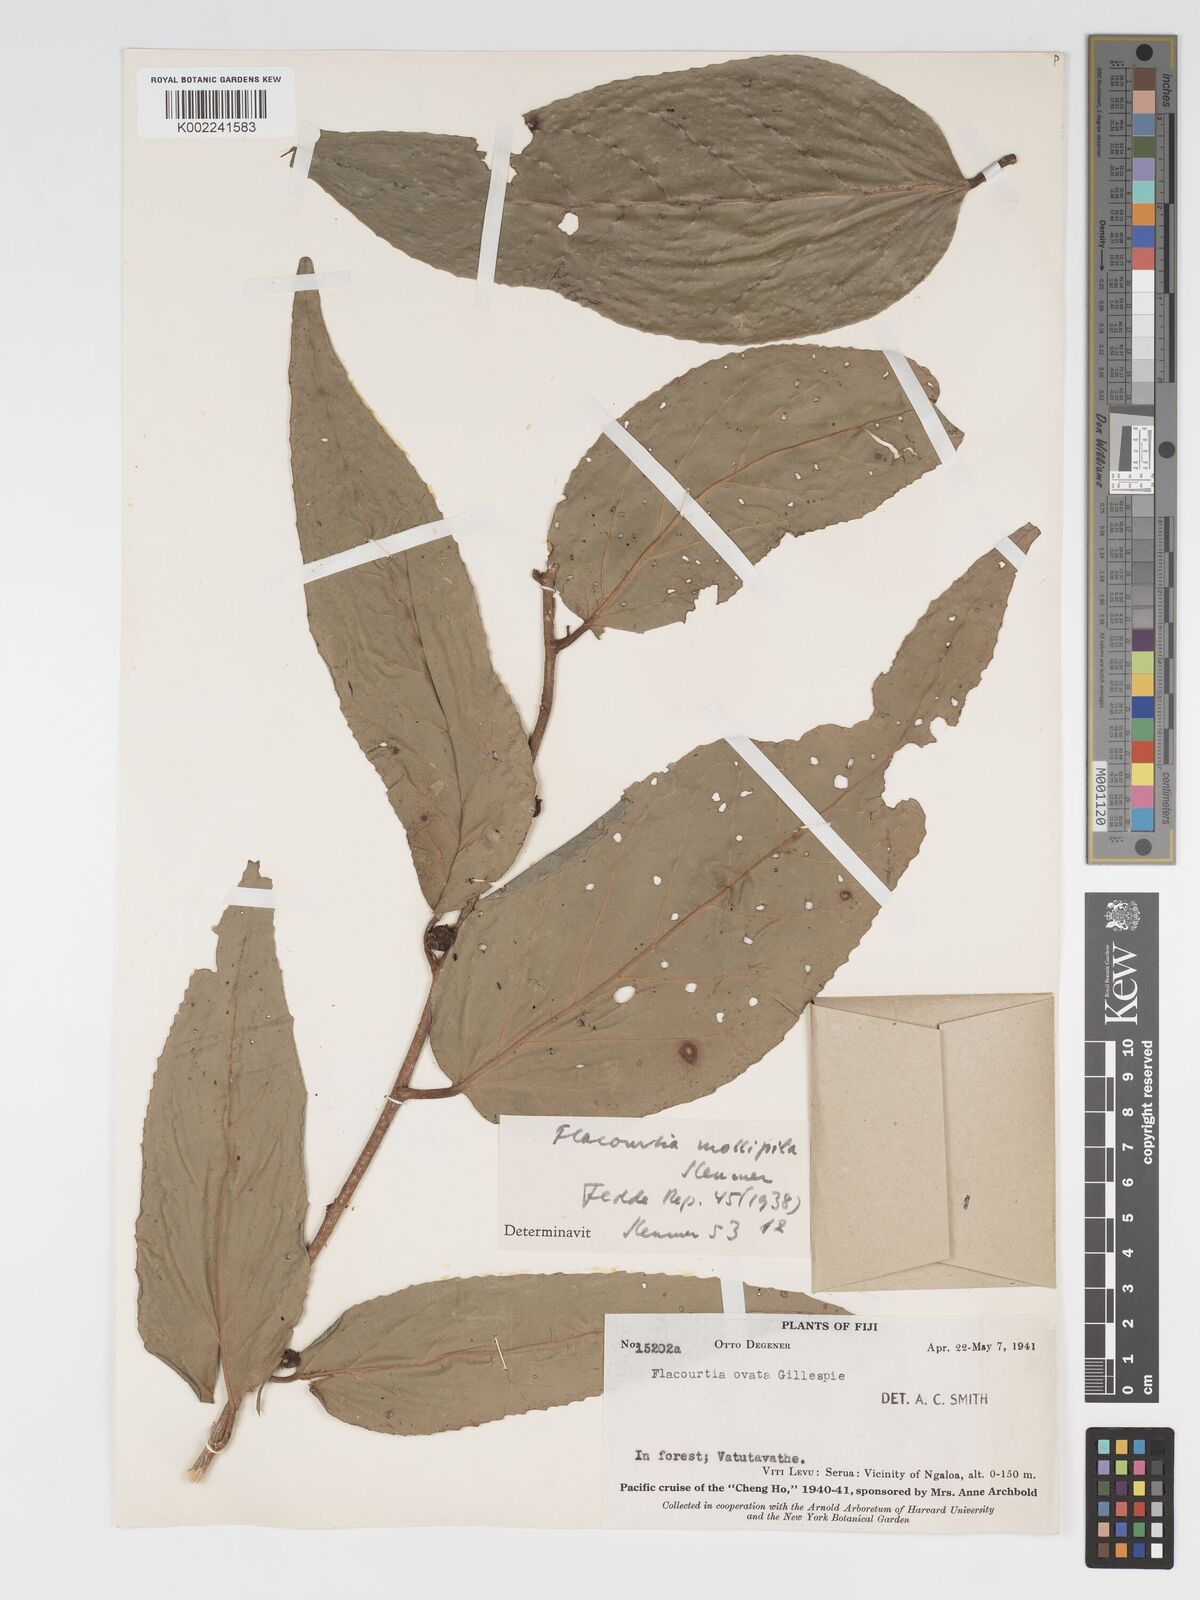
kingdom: Plantae
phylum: Tracheophyta
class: Magnoliopsida
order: Malpighiales
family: Salicaceae
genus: Flacourtia
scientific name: Flacourtia mollipila
